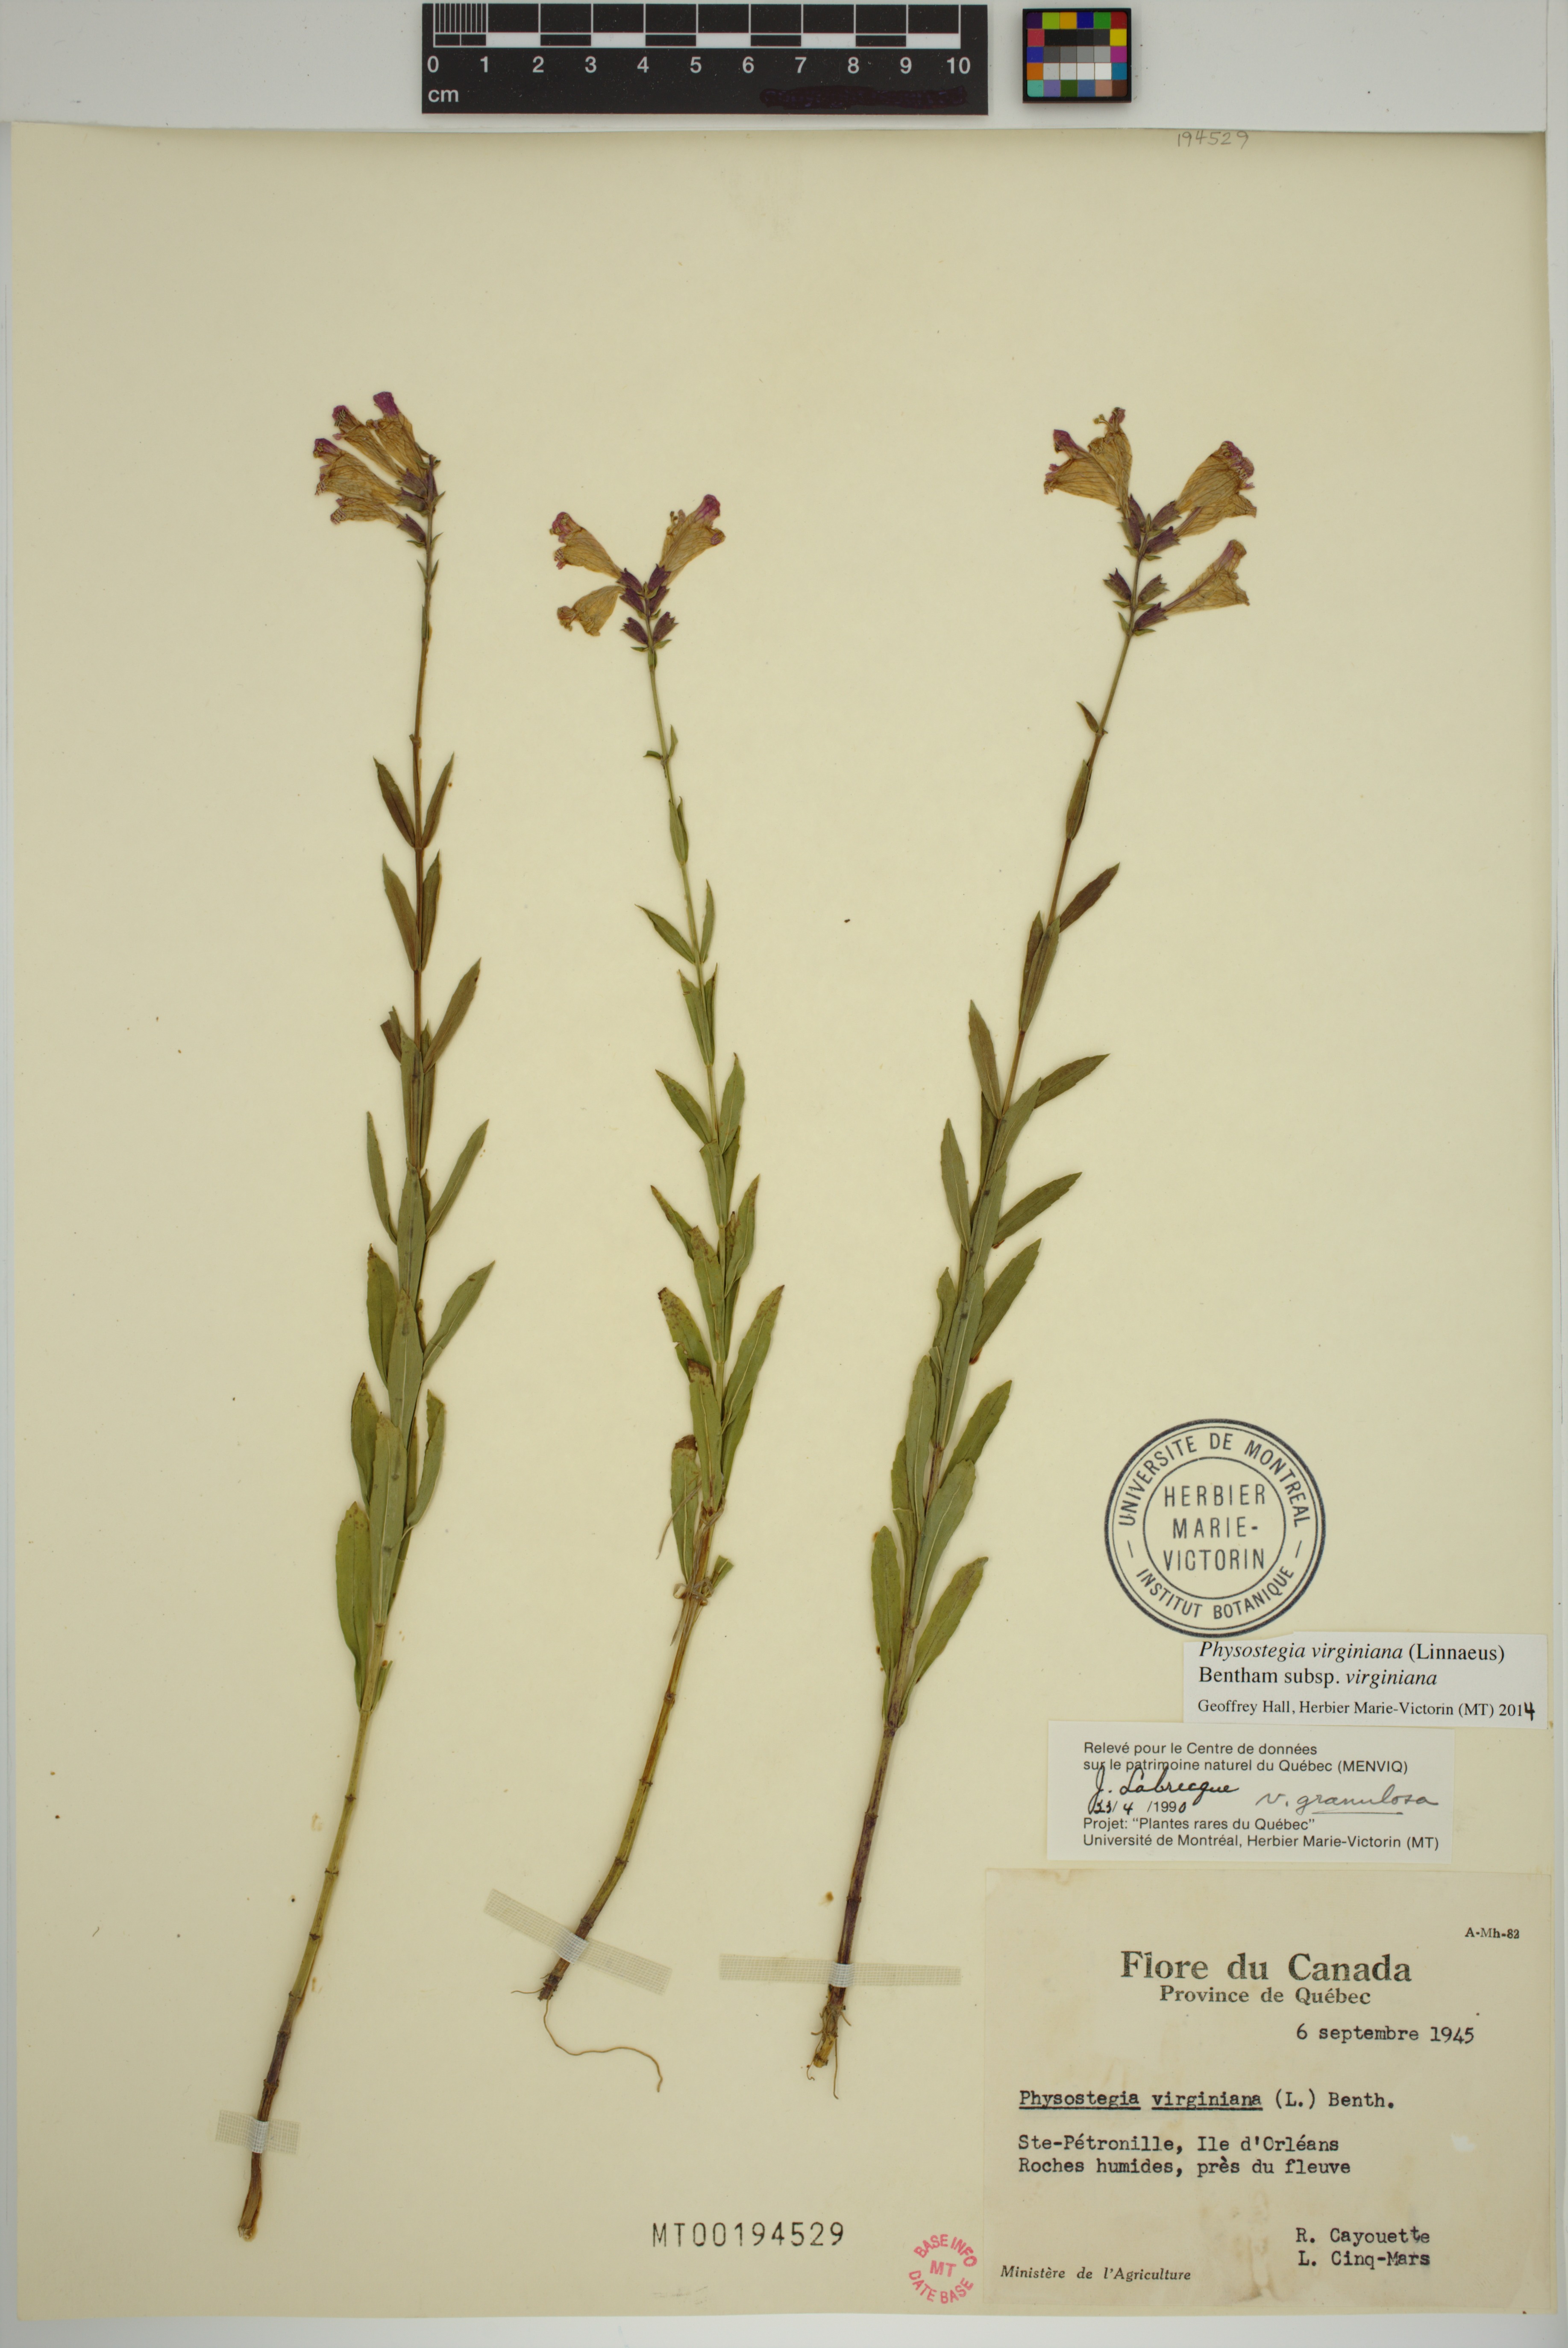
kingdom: Plantae
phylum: Tracheophyta
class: Magnoliopsida
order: Lamiales
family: Lamiaceae
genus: Physostegia
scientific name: Physostegia virginiana
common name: Obedient-plant
